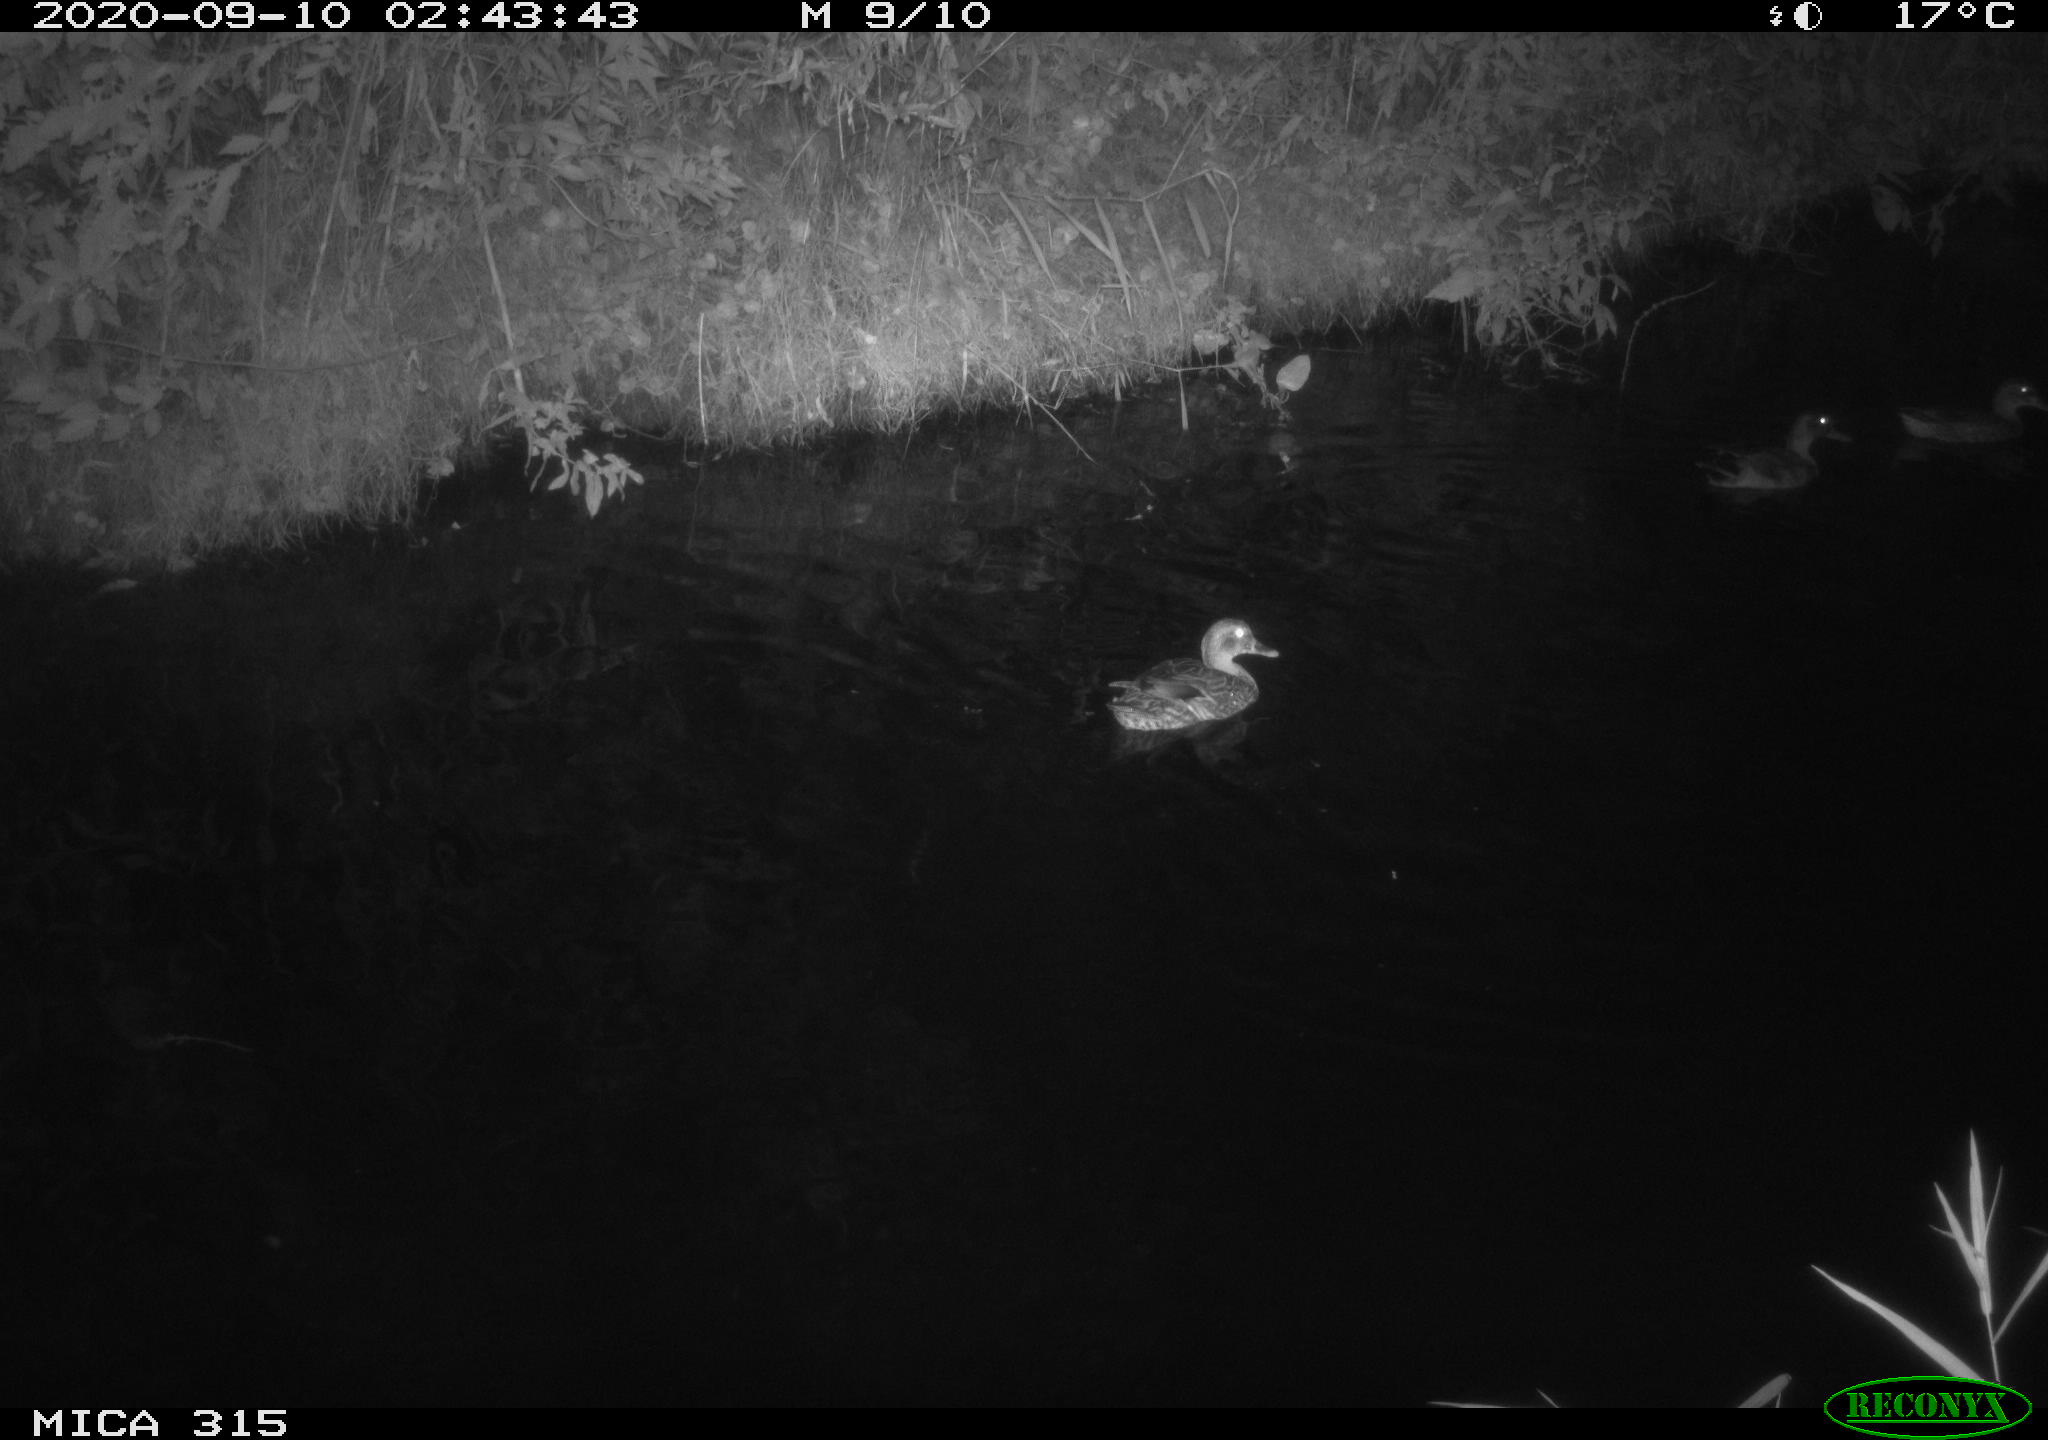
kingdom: Animalia
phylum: Chordata
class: Aves
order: Anseriformes
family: Anatidae
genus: Anas
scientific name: Anas platyrhynchos
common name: Mallard
